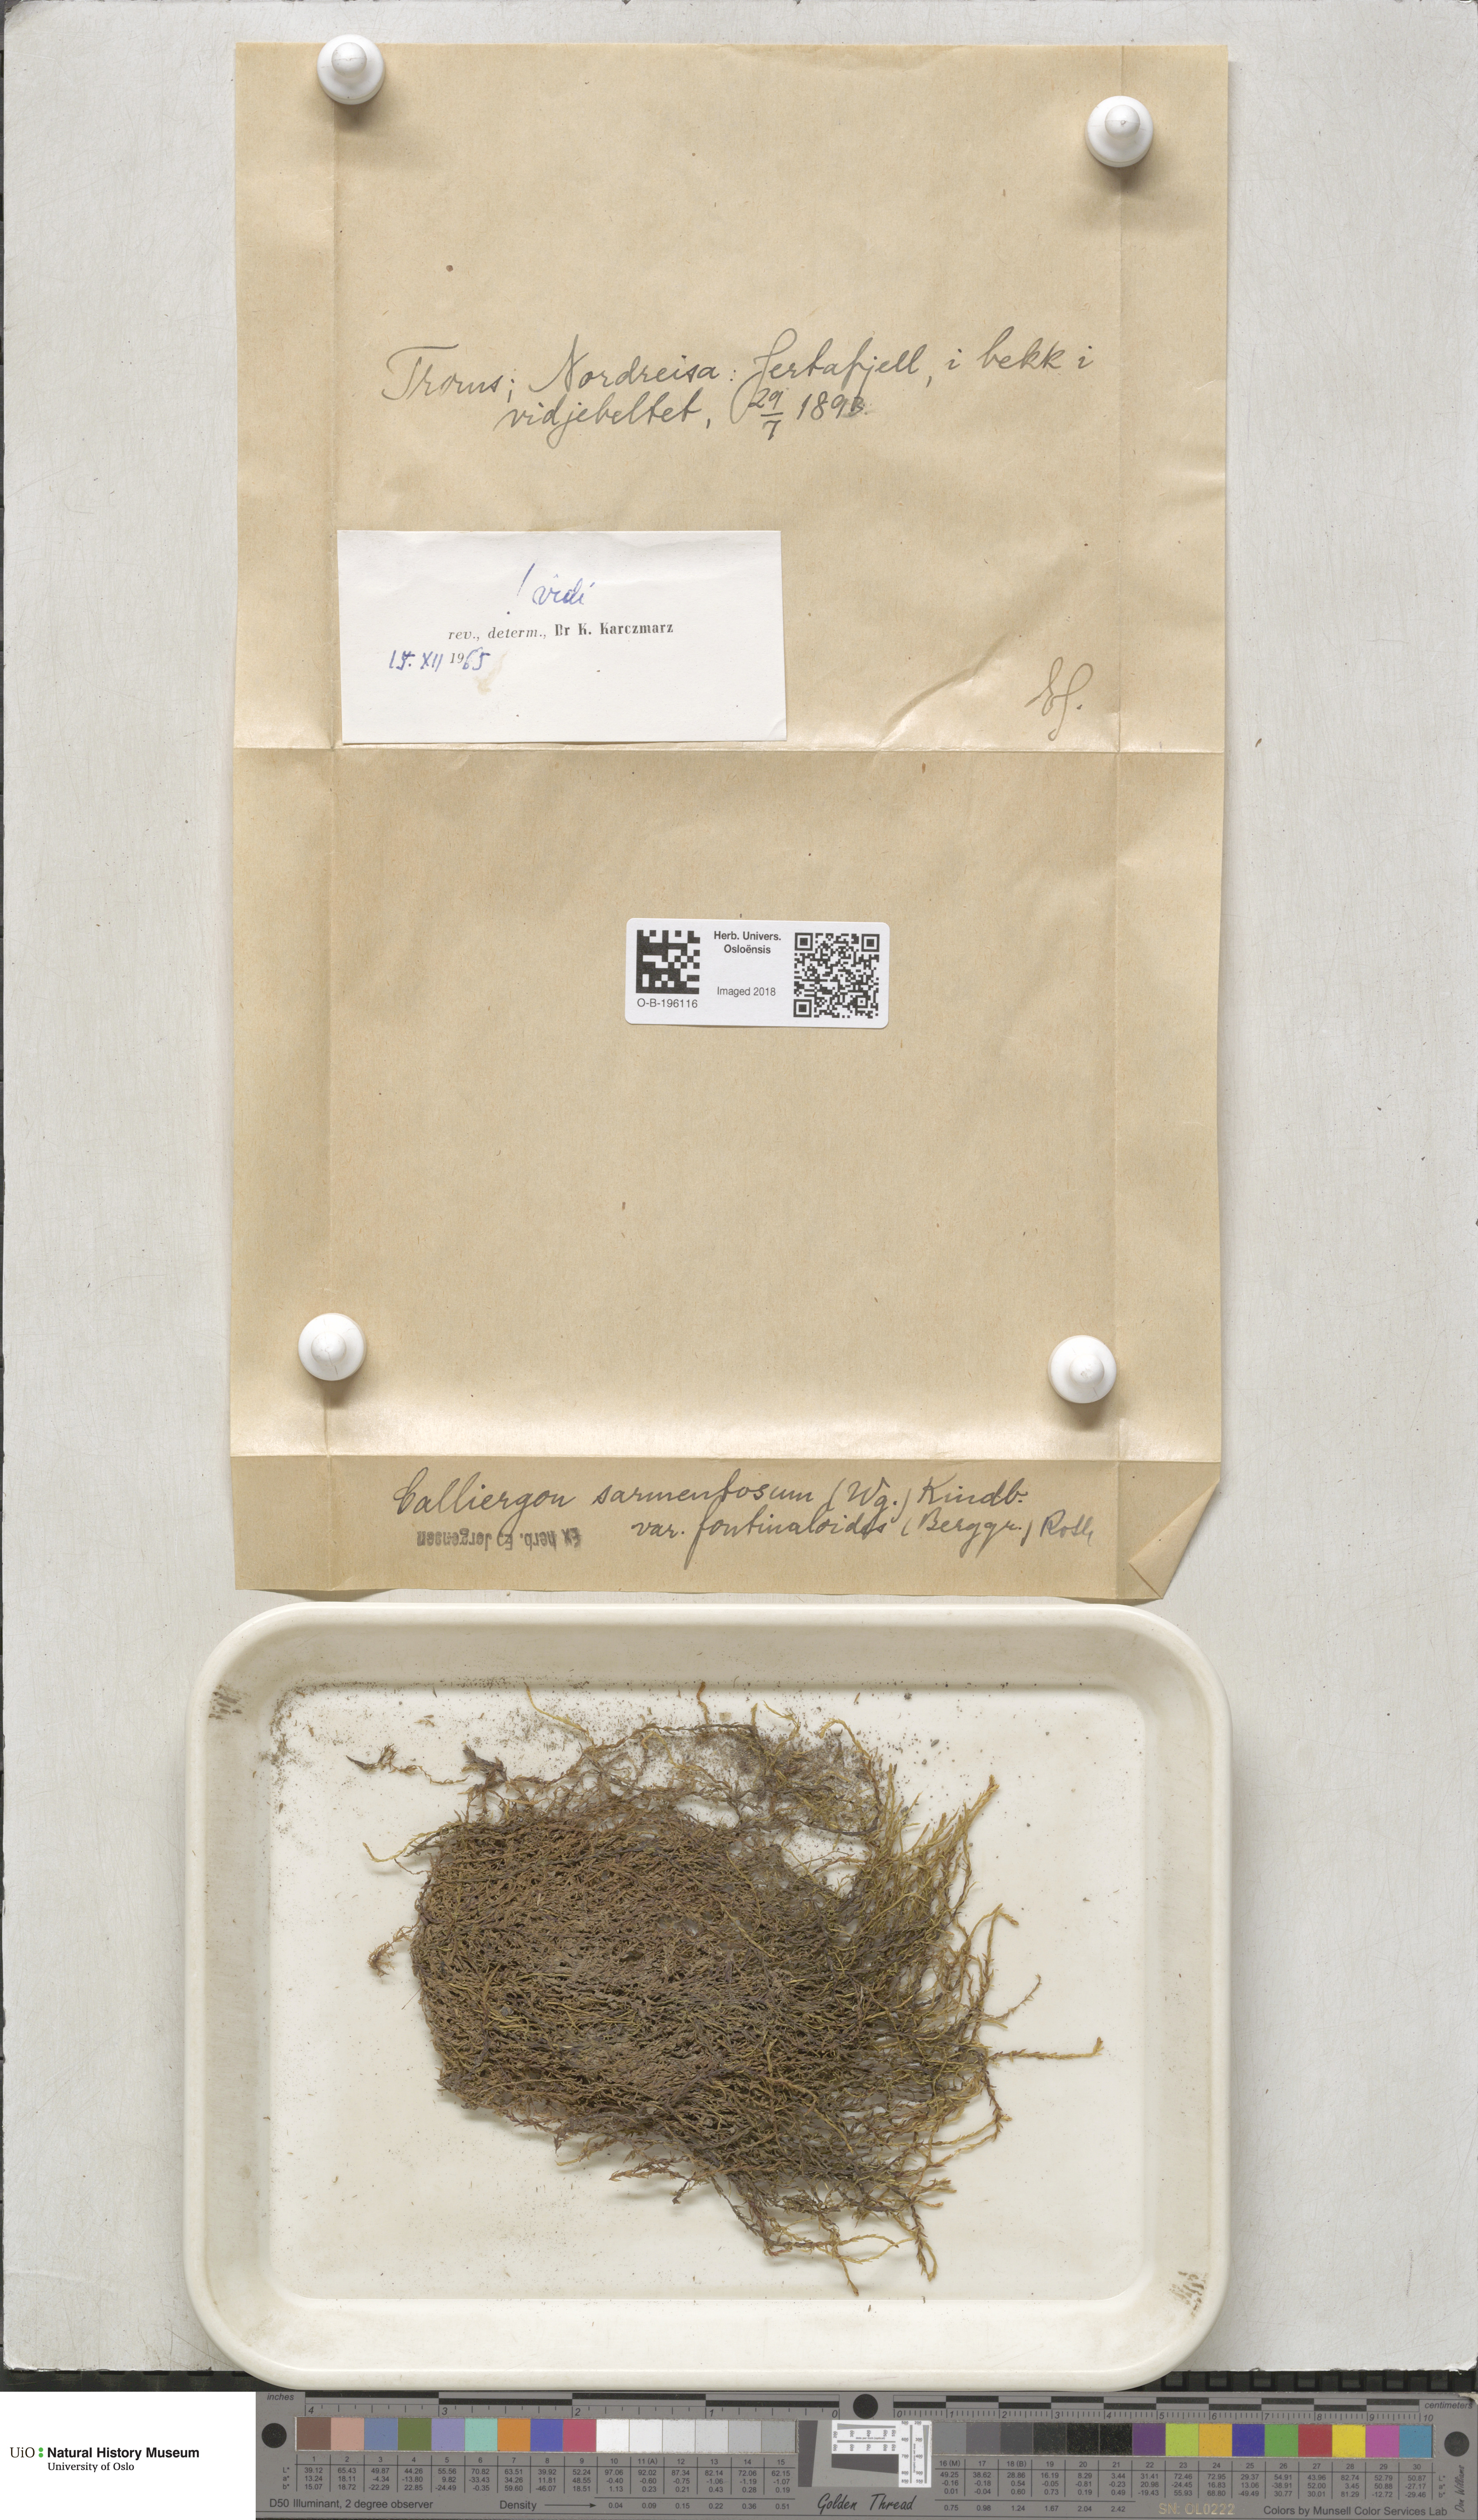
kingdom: Plantae
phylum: Bryophyta
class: Bryopsida
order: Hypnales
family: Calliergonaceae
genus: Sarmentypnum
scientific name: Sarmentypnum sarmentosum
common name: Twiggy spoon moss
